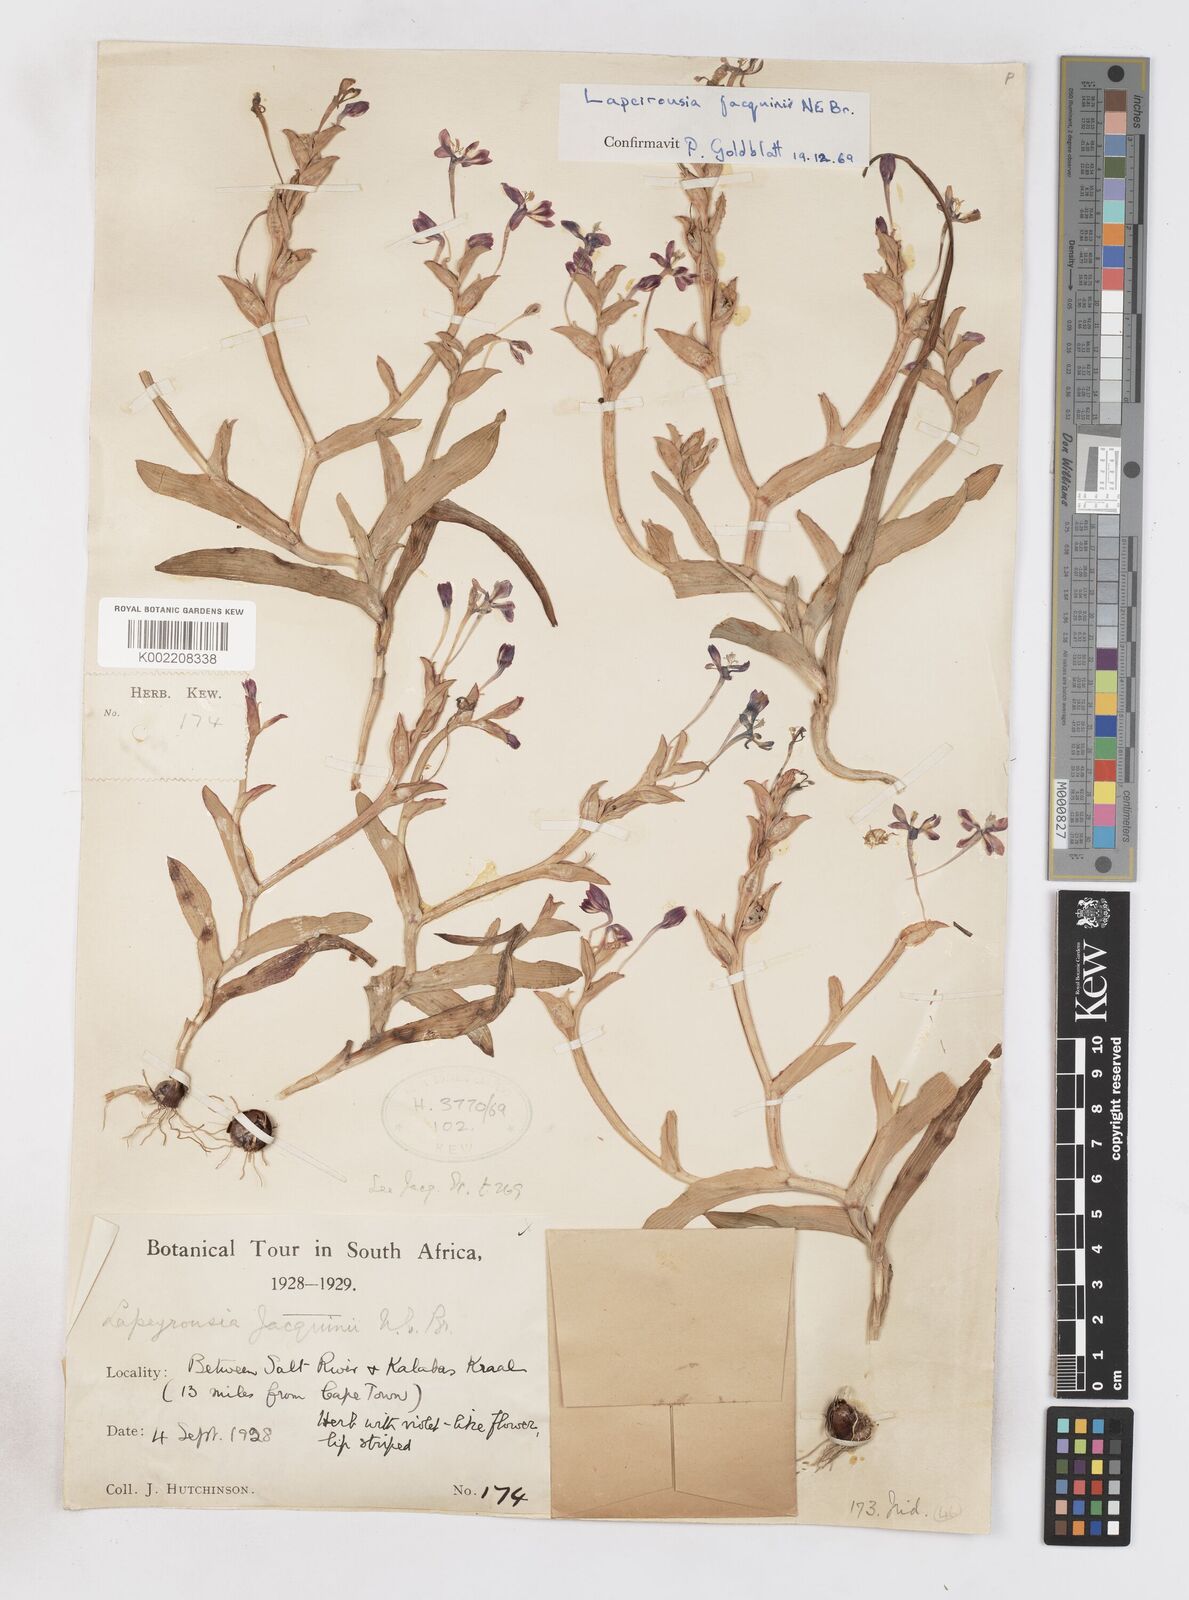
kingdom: Plantae
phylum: Tracheophyta
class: Liliopsida
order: Asparagales
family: Iridaceae
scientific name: Iridaceae
